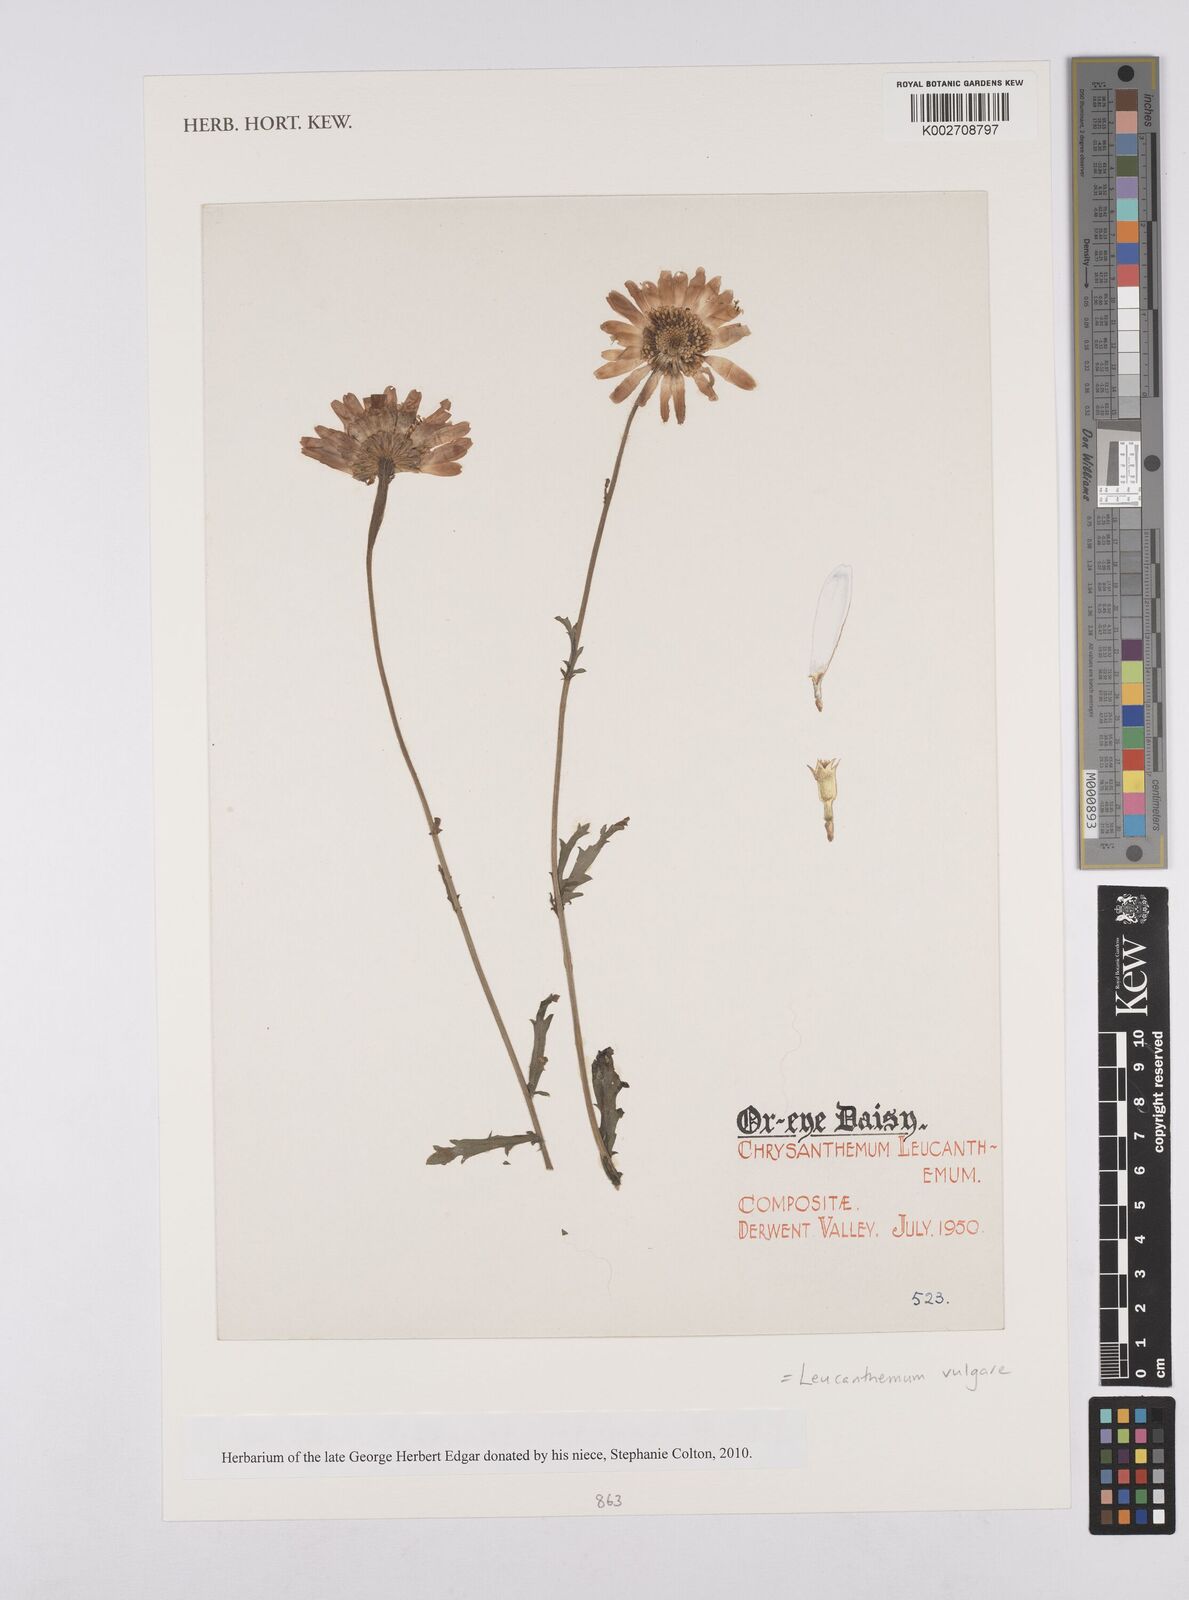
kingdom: Plantae
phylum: Tracheophyta
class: Magnoliopsida
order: Asterales
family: Asteraceae
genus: Leucanthemum
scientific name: Leucanthemum vulgare
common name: Oxeye daisy
